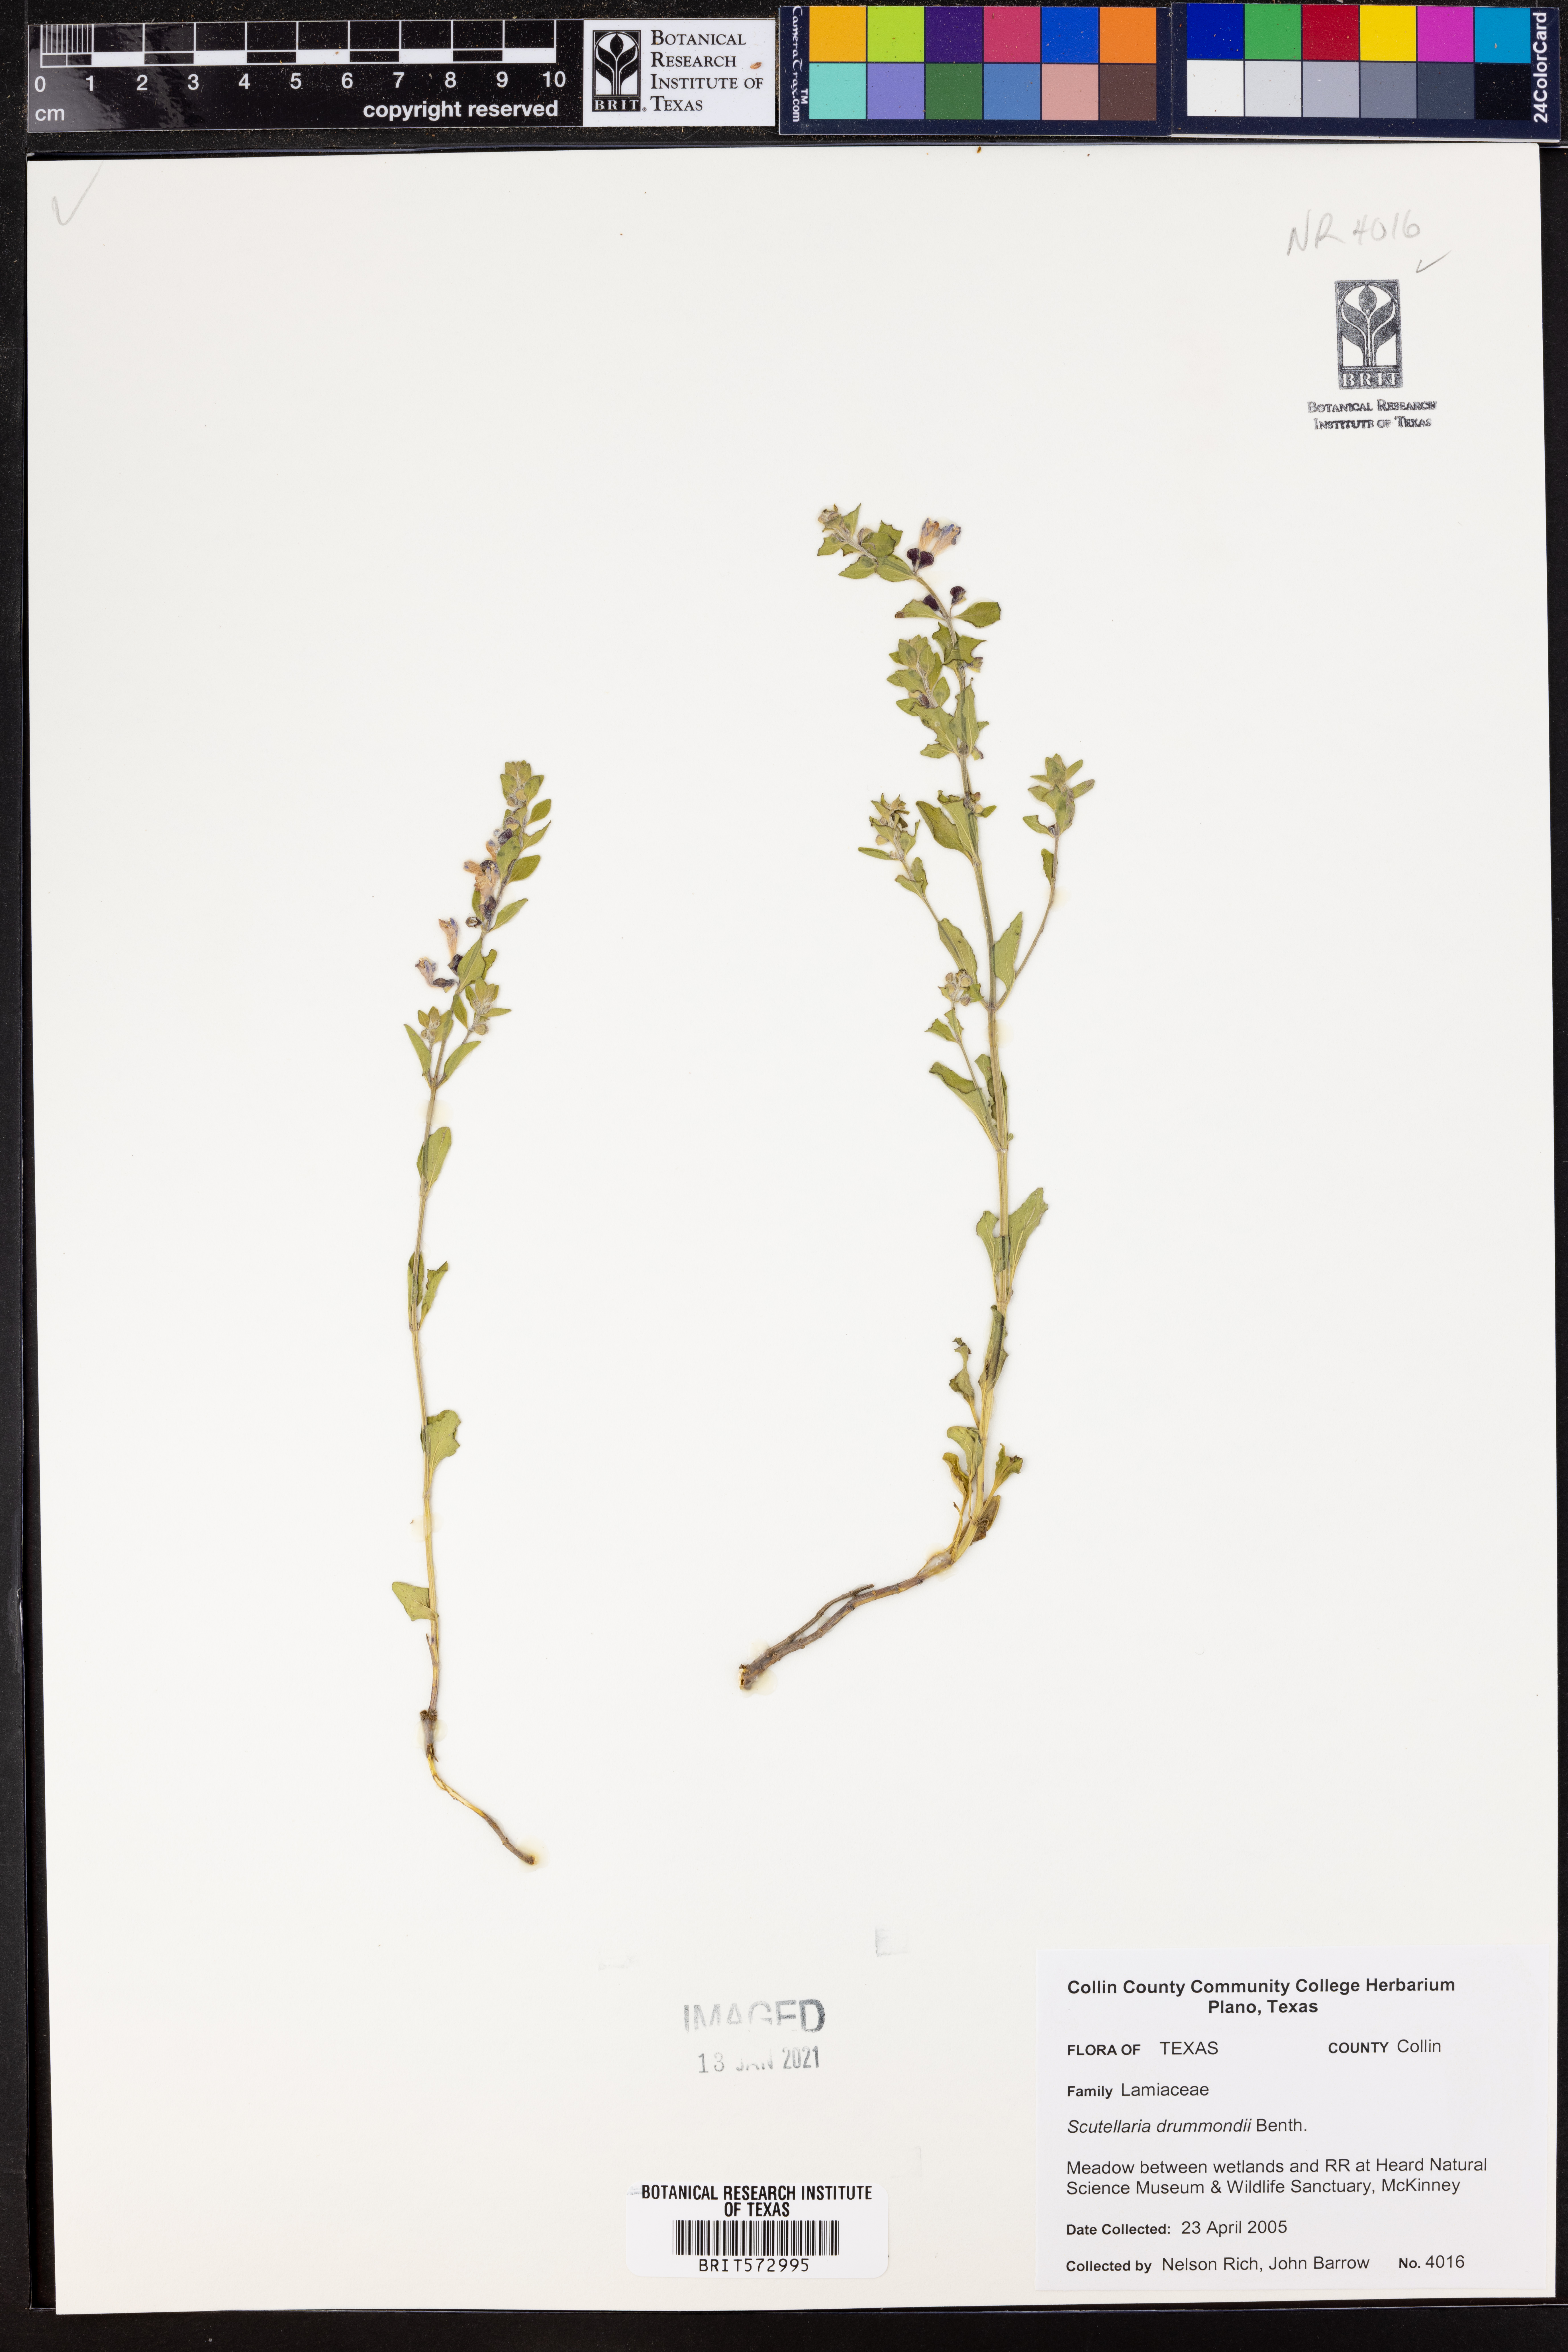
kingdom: Plantae
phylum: Tracheophyta
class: Magnoliopsida
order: Lamiales
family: Lamiaceae
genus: Scutellaria
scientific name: Scutellaria drummondii
